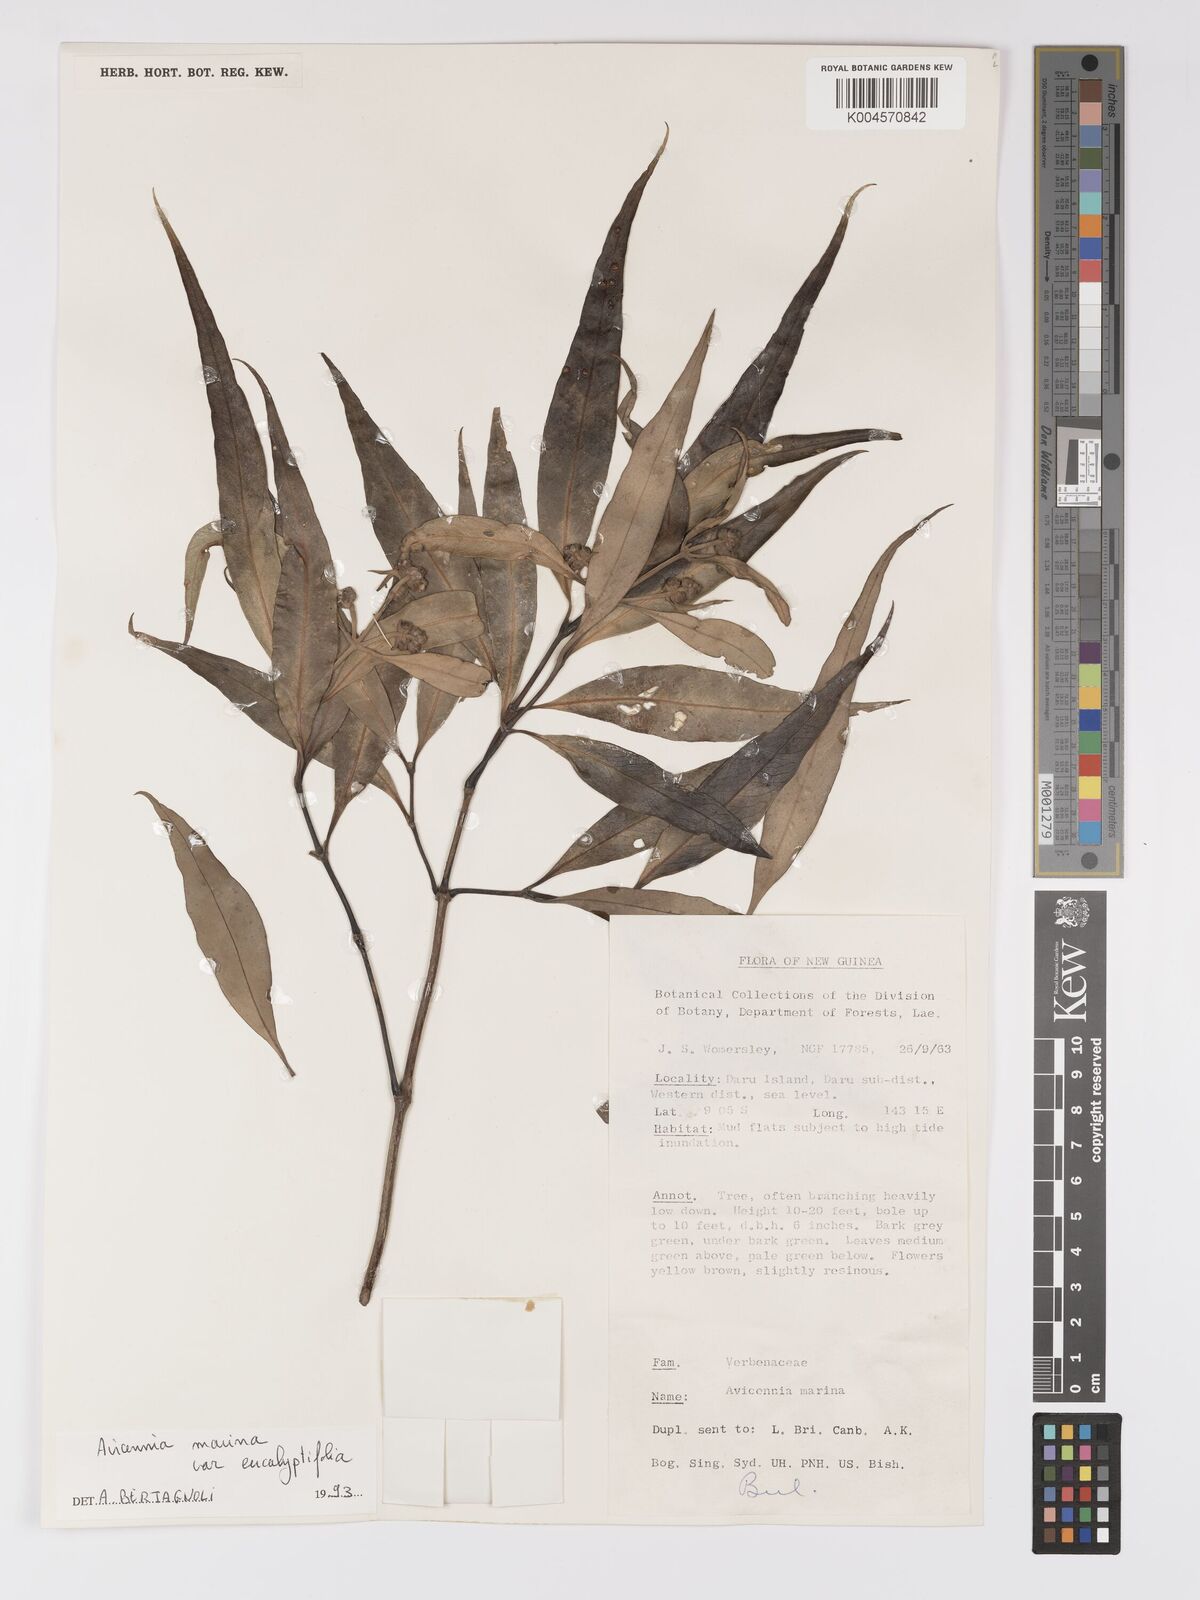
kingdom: Plantae
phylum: Tracheophyta
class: Magnoliopsida
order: Lamiales
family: Acanthaceae
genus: Avicennia
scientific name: Avicennia marina
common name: Gray mangrove
